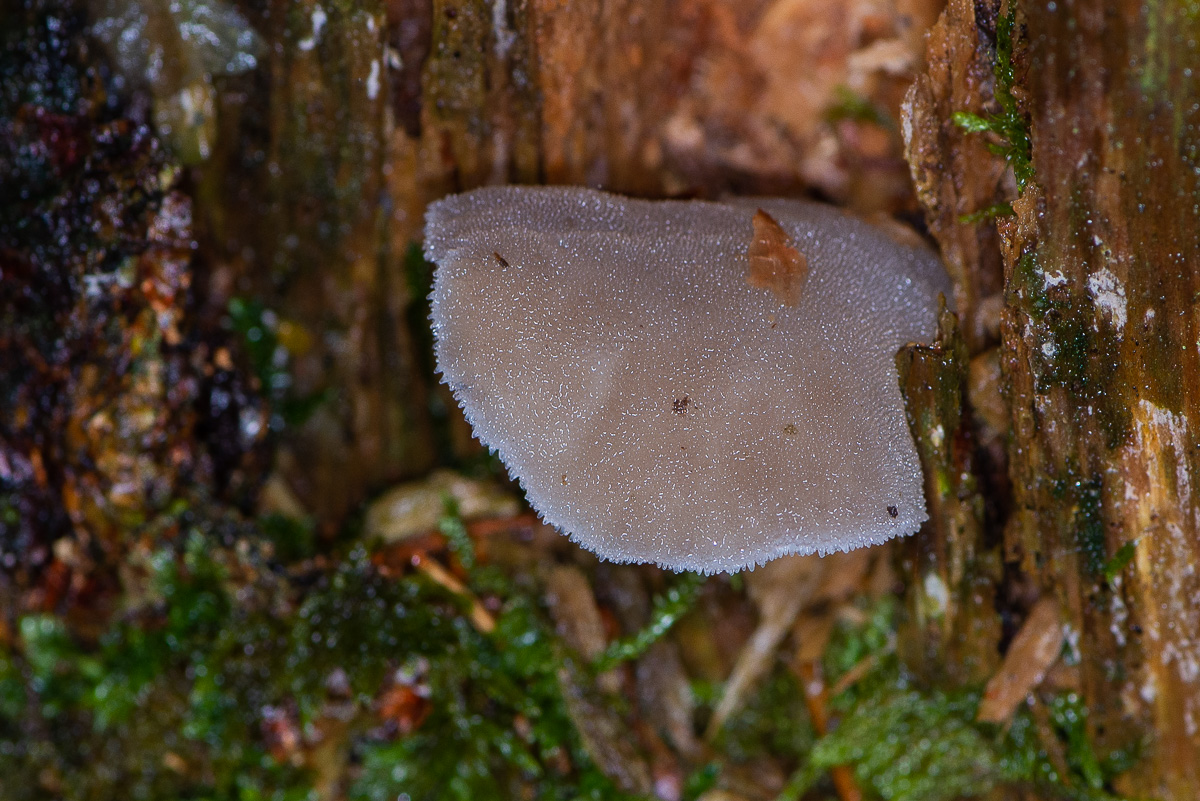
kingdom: Fungi
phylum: Basidiomycota
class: Agaricomycetes
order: Auriculariales
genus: Pseudohydnum
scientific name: Pseudohydnum gelatinosum
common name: bævretand
